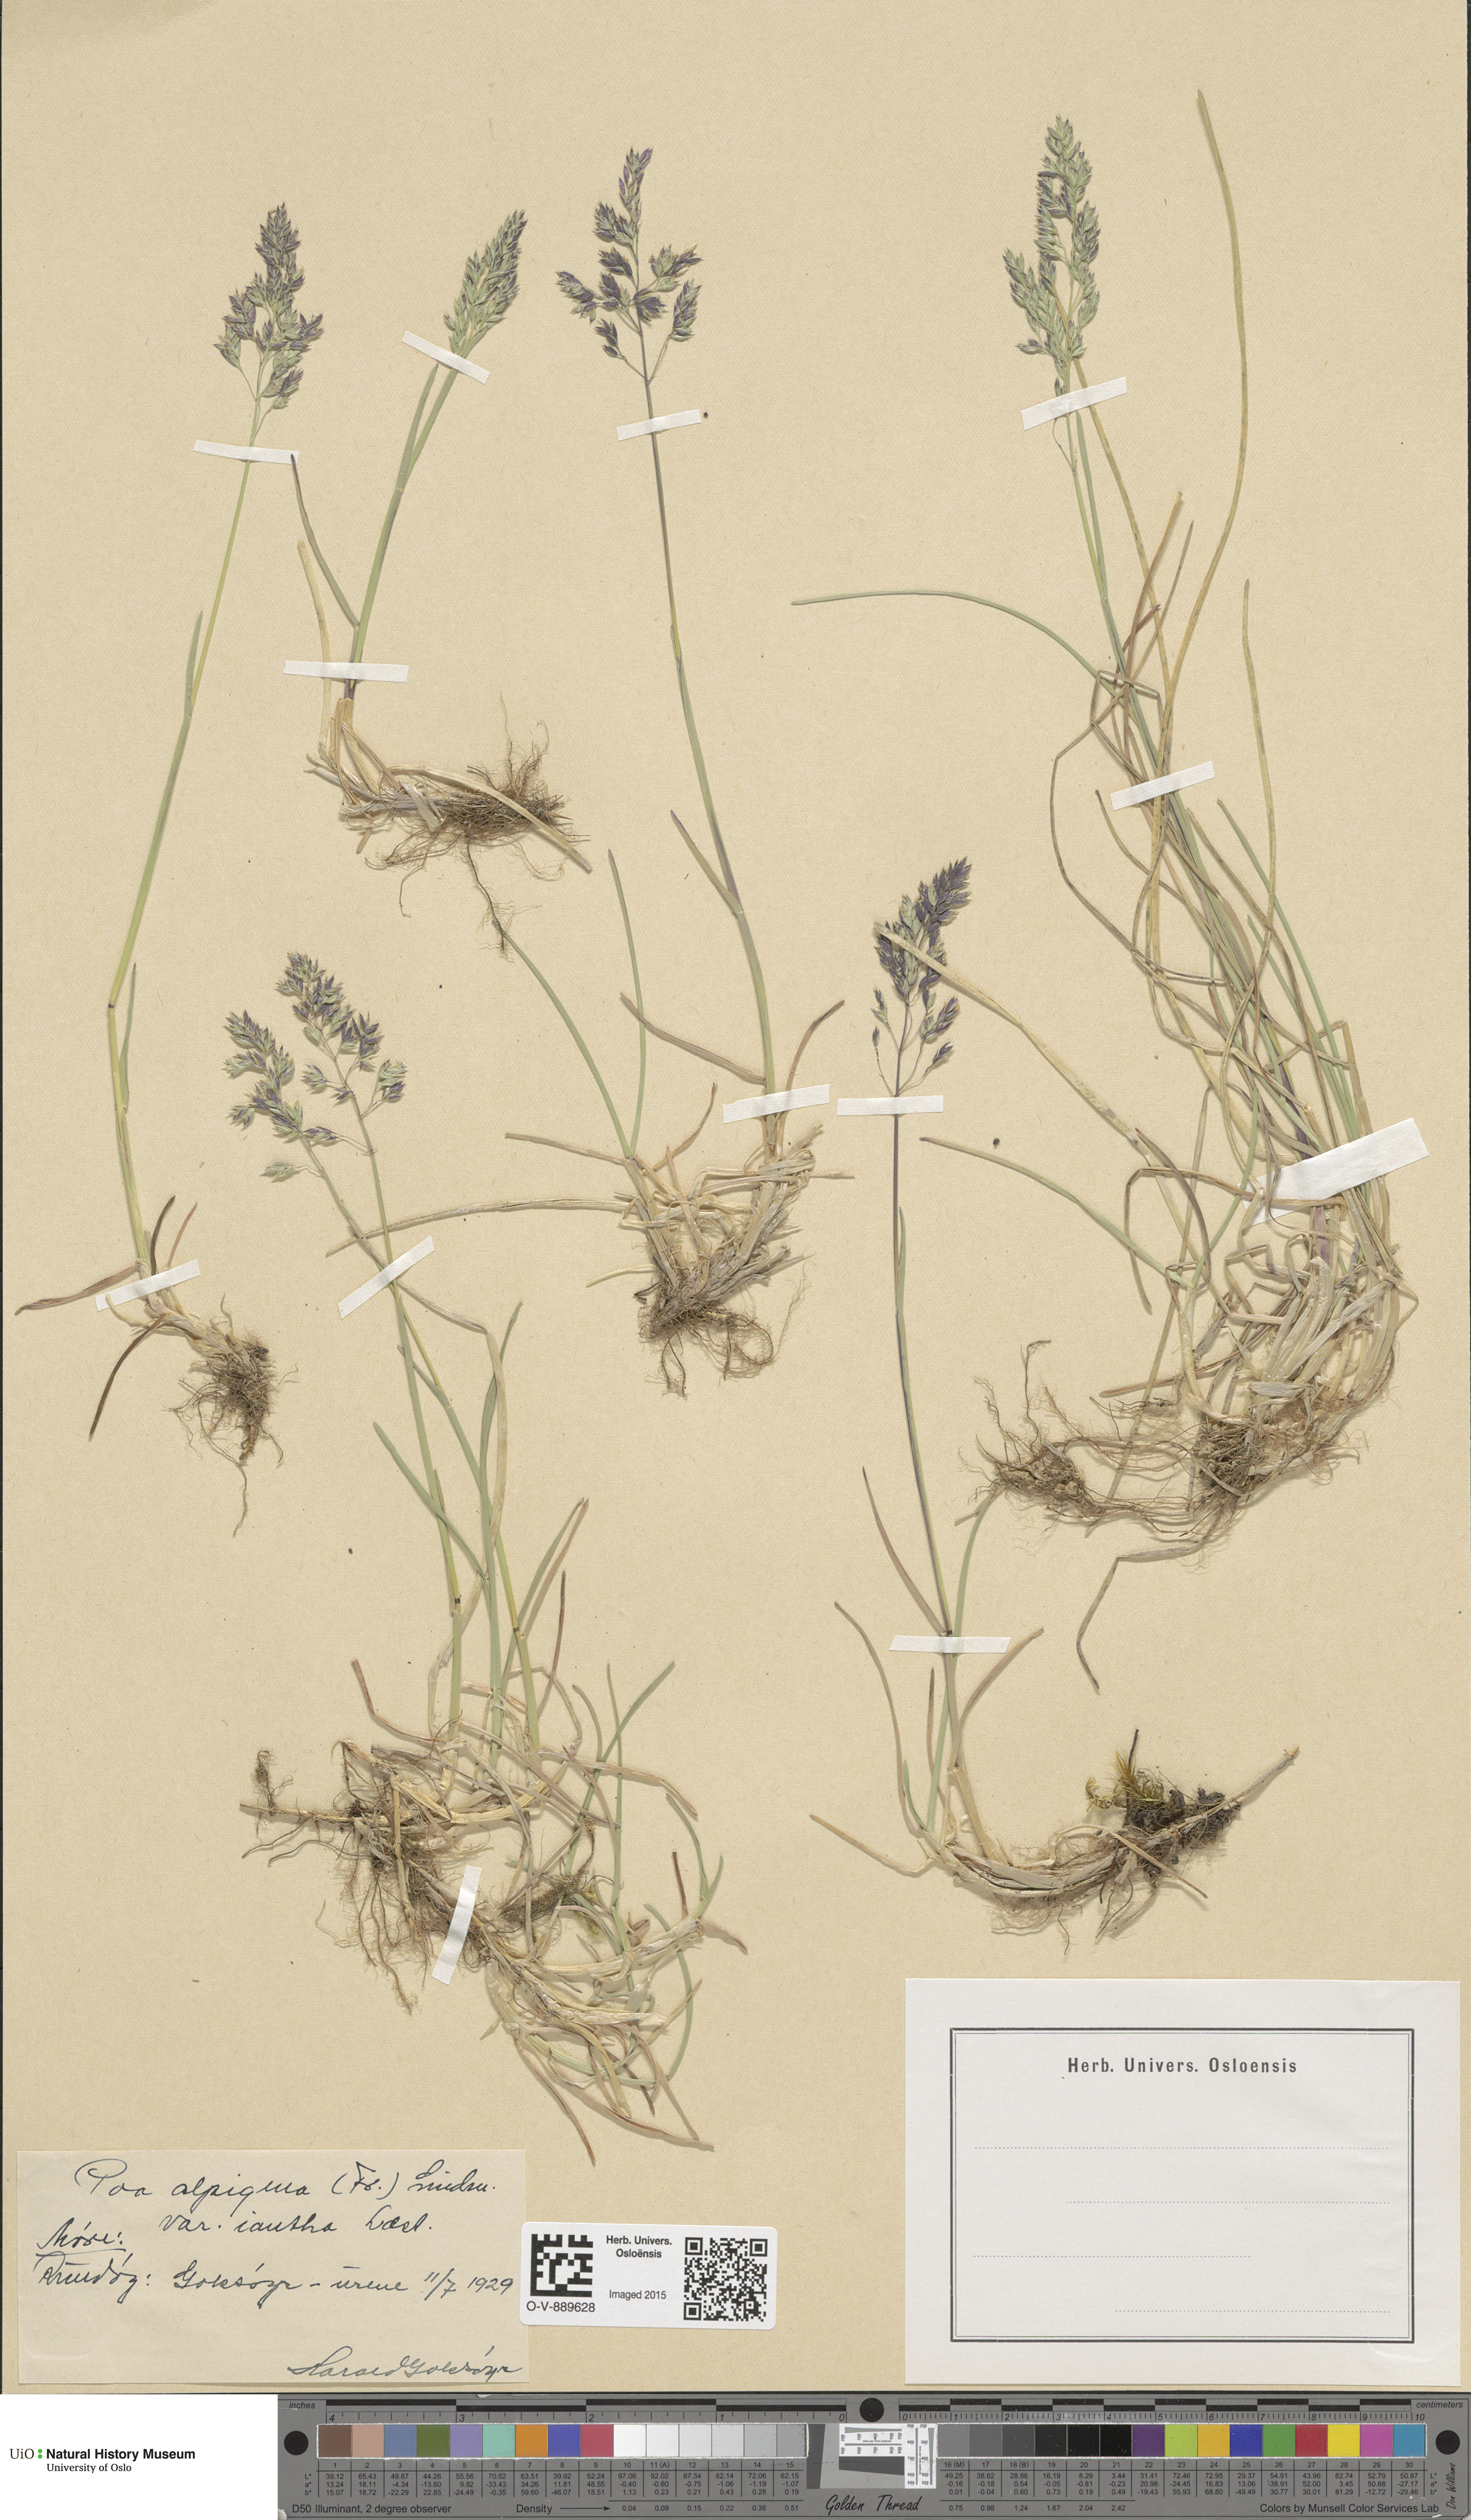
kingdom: Plantae
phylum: Tracheophyta
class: Liliopsida
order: Poales
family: Poaceae
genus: Poa
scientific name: Poa alpigena
